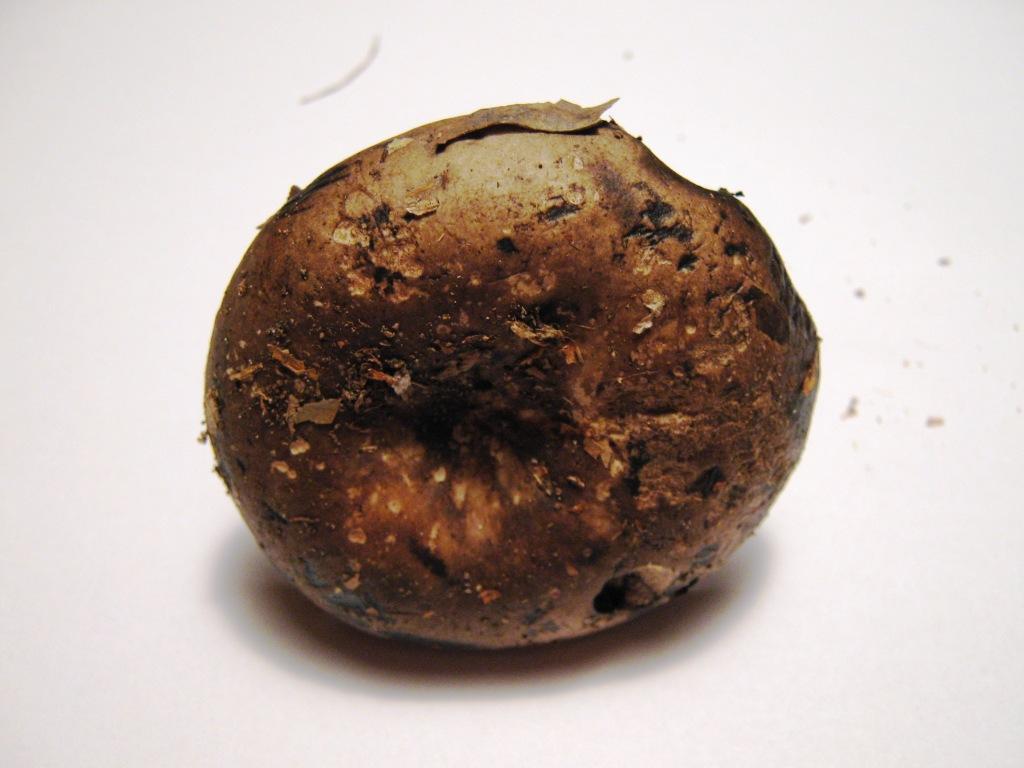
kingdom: Fungi
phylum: Basidiomycota
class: Agaricomycetes
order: Russulales
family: Russulaceae
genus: Russula
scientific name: Russula adusta
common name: sværtende skørhat
